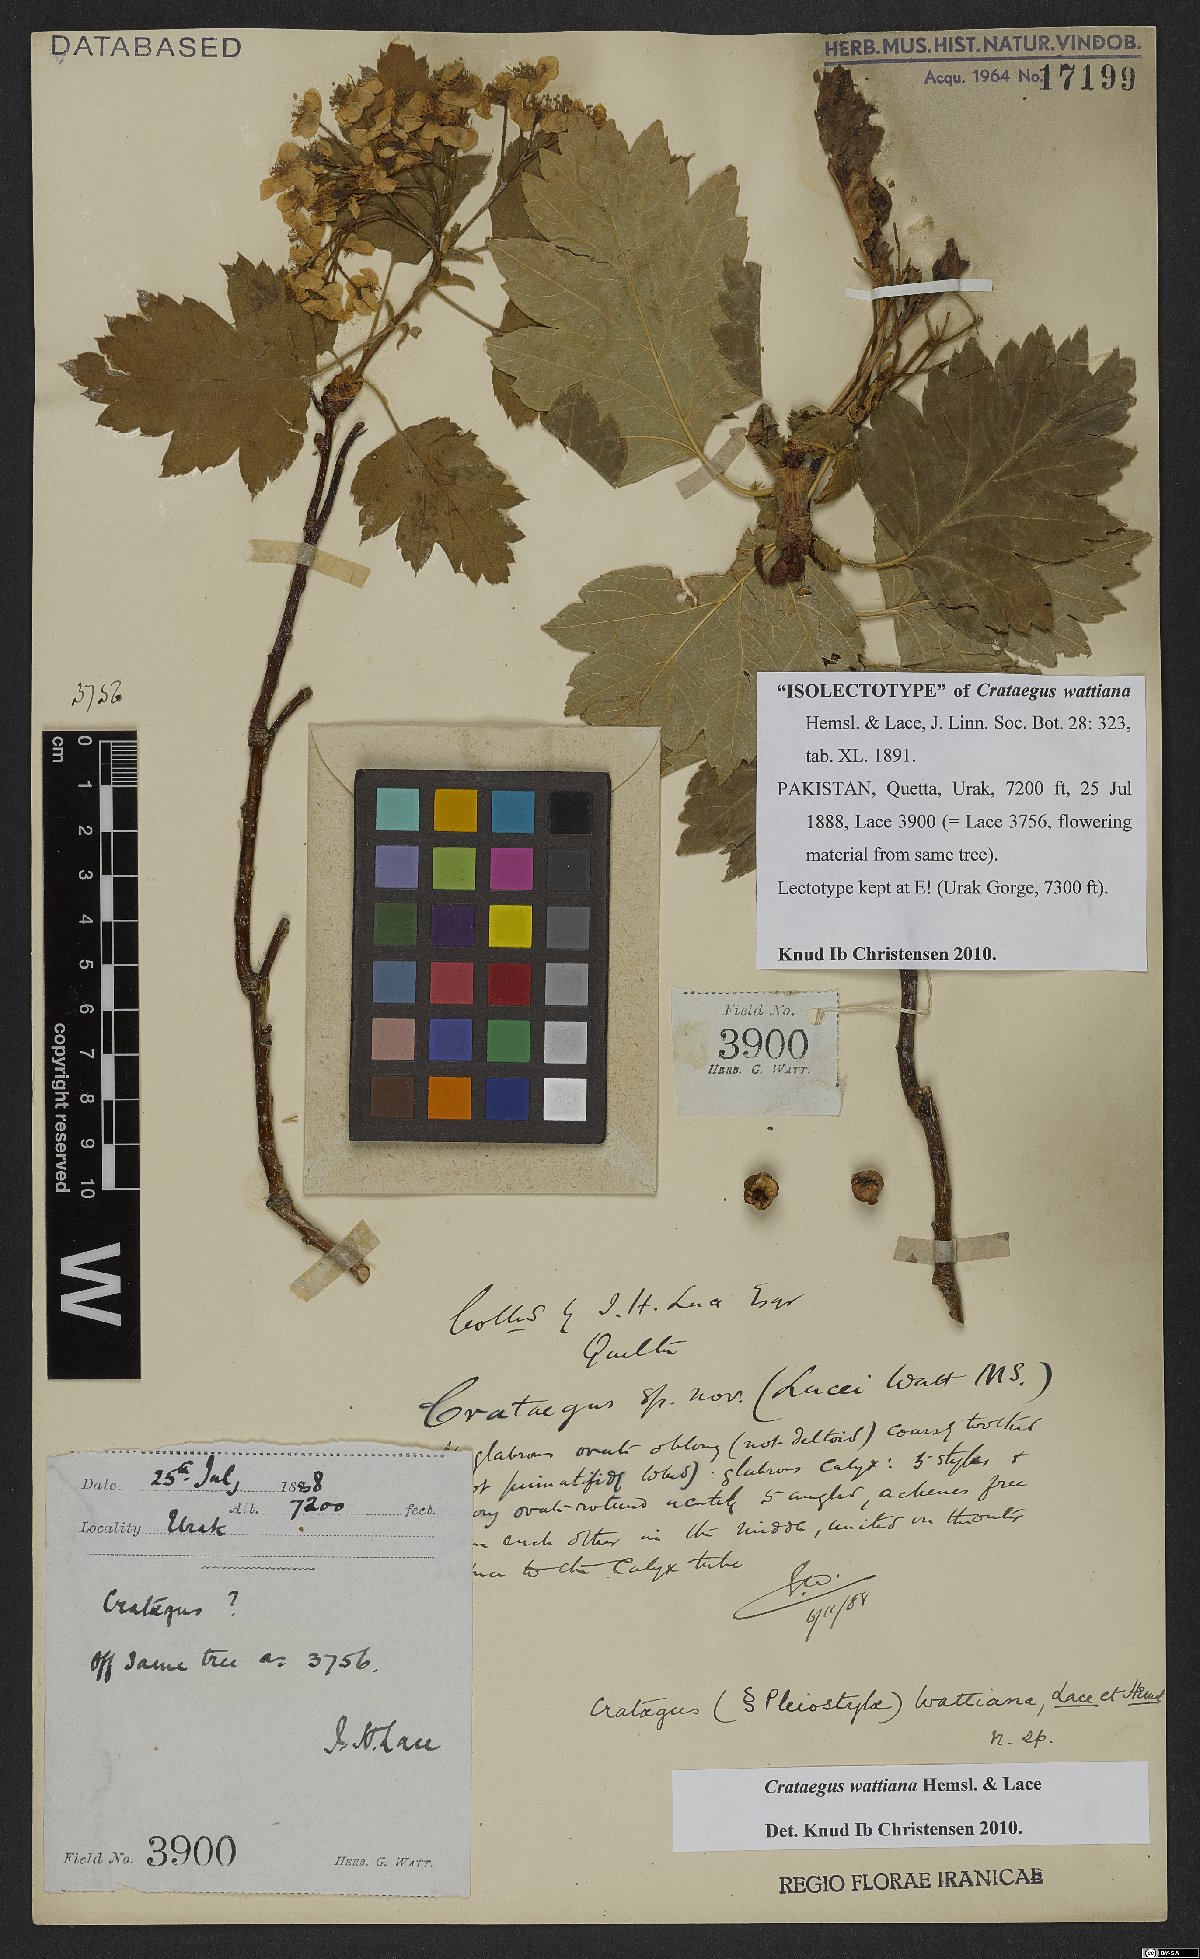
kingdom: Plantae
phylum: Tracheophyta
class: Magnoliopsida
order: Rosales
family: Rosaceae
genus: Crataegus
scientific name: Crataegus chlorocarpa
